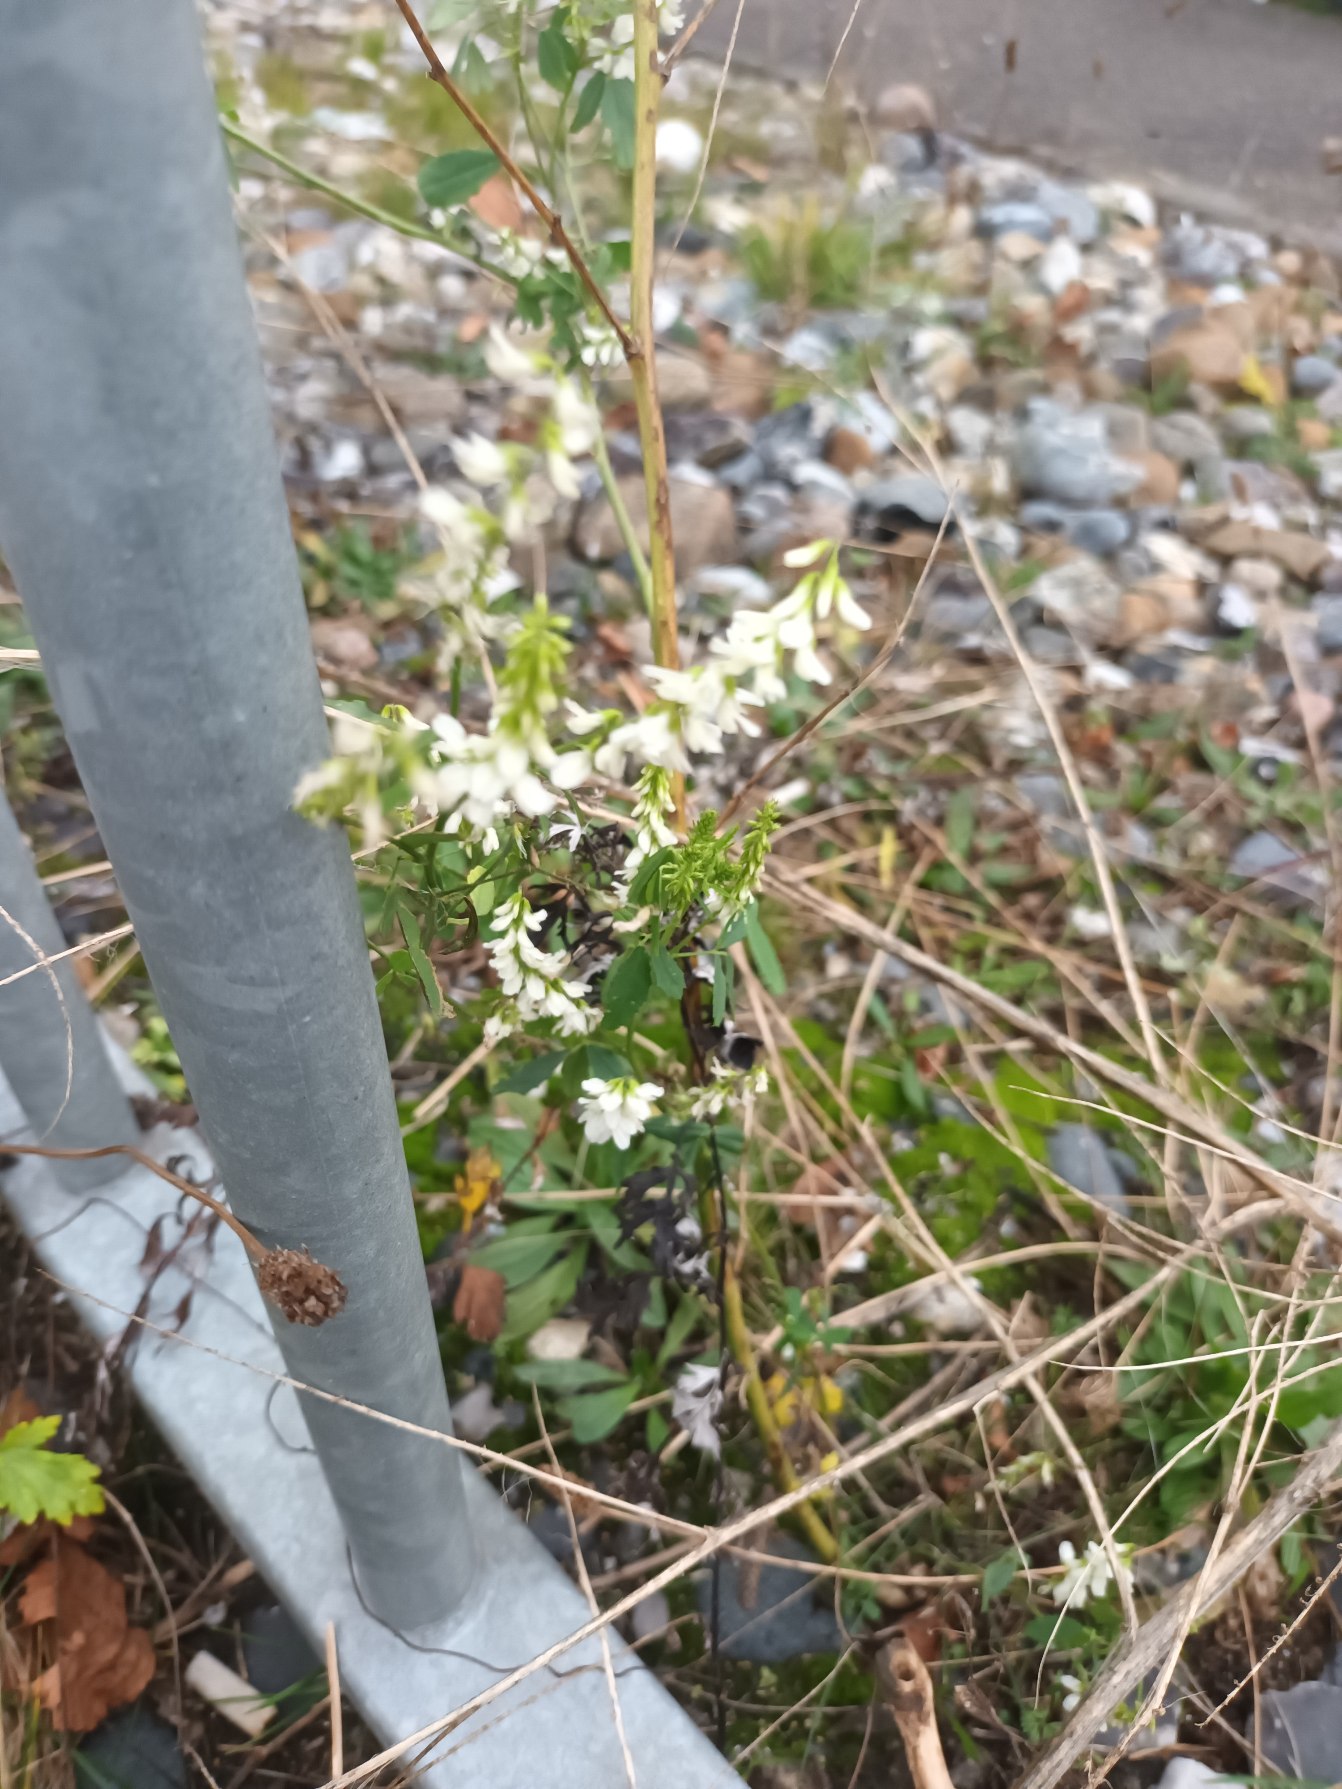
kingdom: Plantae
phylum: Tracheophyta
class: Magnoliopsida
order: Fabales
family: Fabaceae
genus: Melilotus
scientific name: Melilotus albus
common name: Hvid stenkløver
